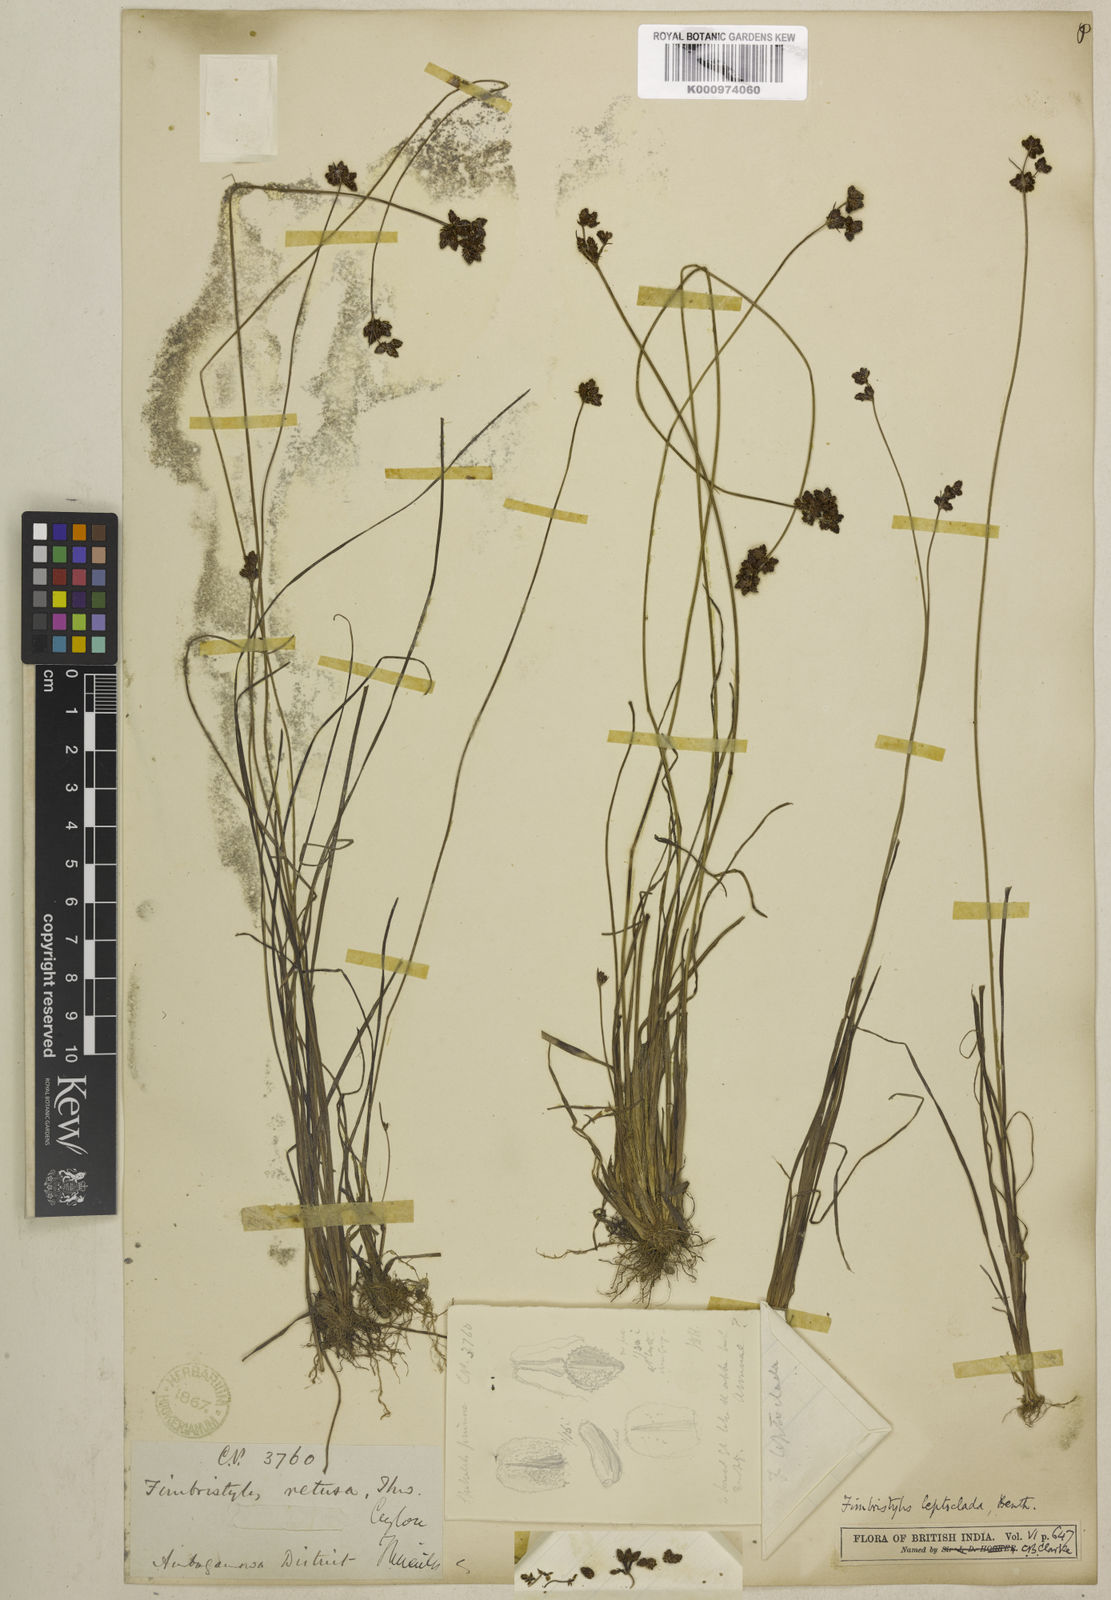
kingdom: Plantae
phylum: Tracheophyta
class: Liliopsida
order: Poales
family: Cyperaceae
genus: Fimbristylis
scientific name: Fimbristylis leptoclada
